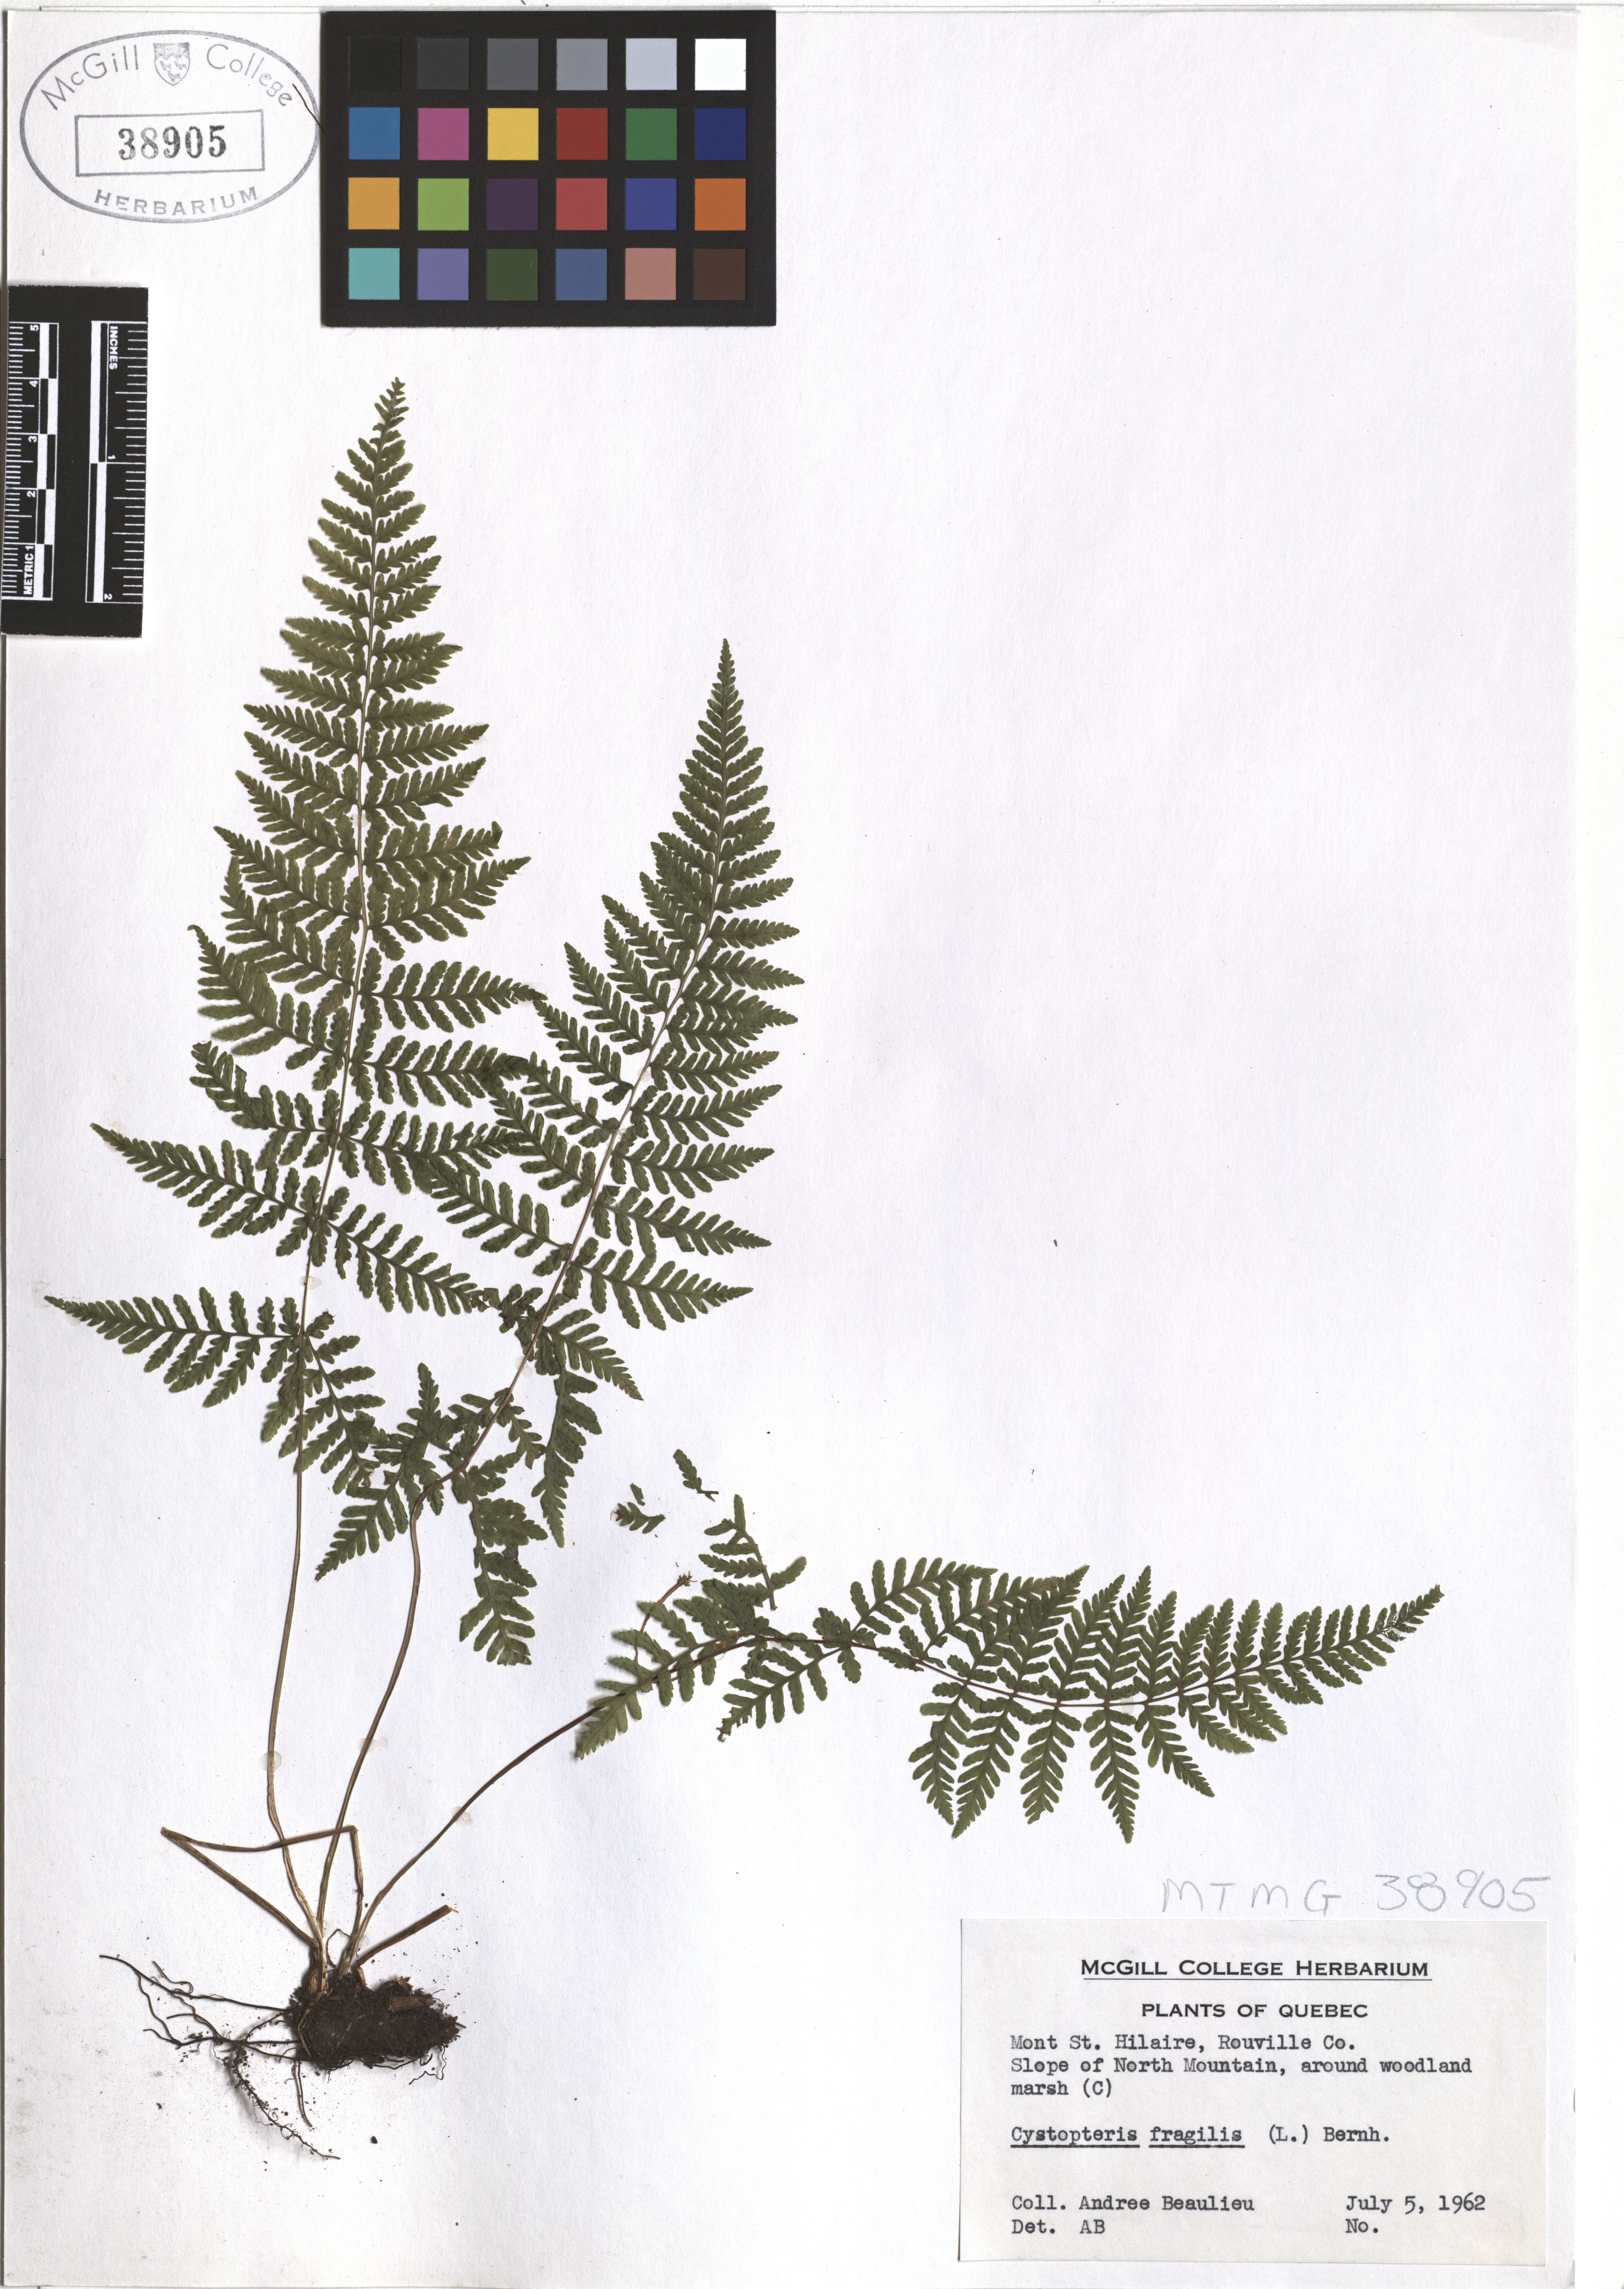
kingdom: Plantae
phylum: Tracheophyta
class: Polypodiopsida
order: Polypodiales
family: Cystopteridaceae
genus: Cystopteris
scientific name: Cystopteris fragilis
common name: Brittle bladder fern
